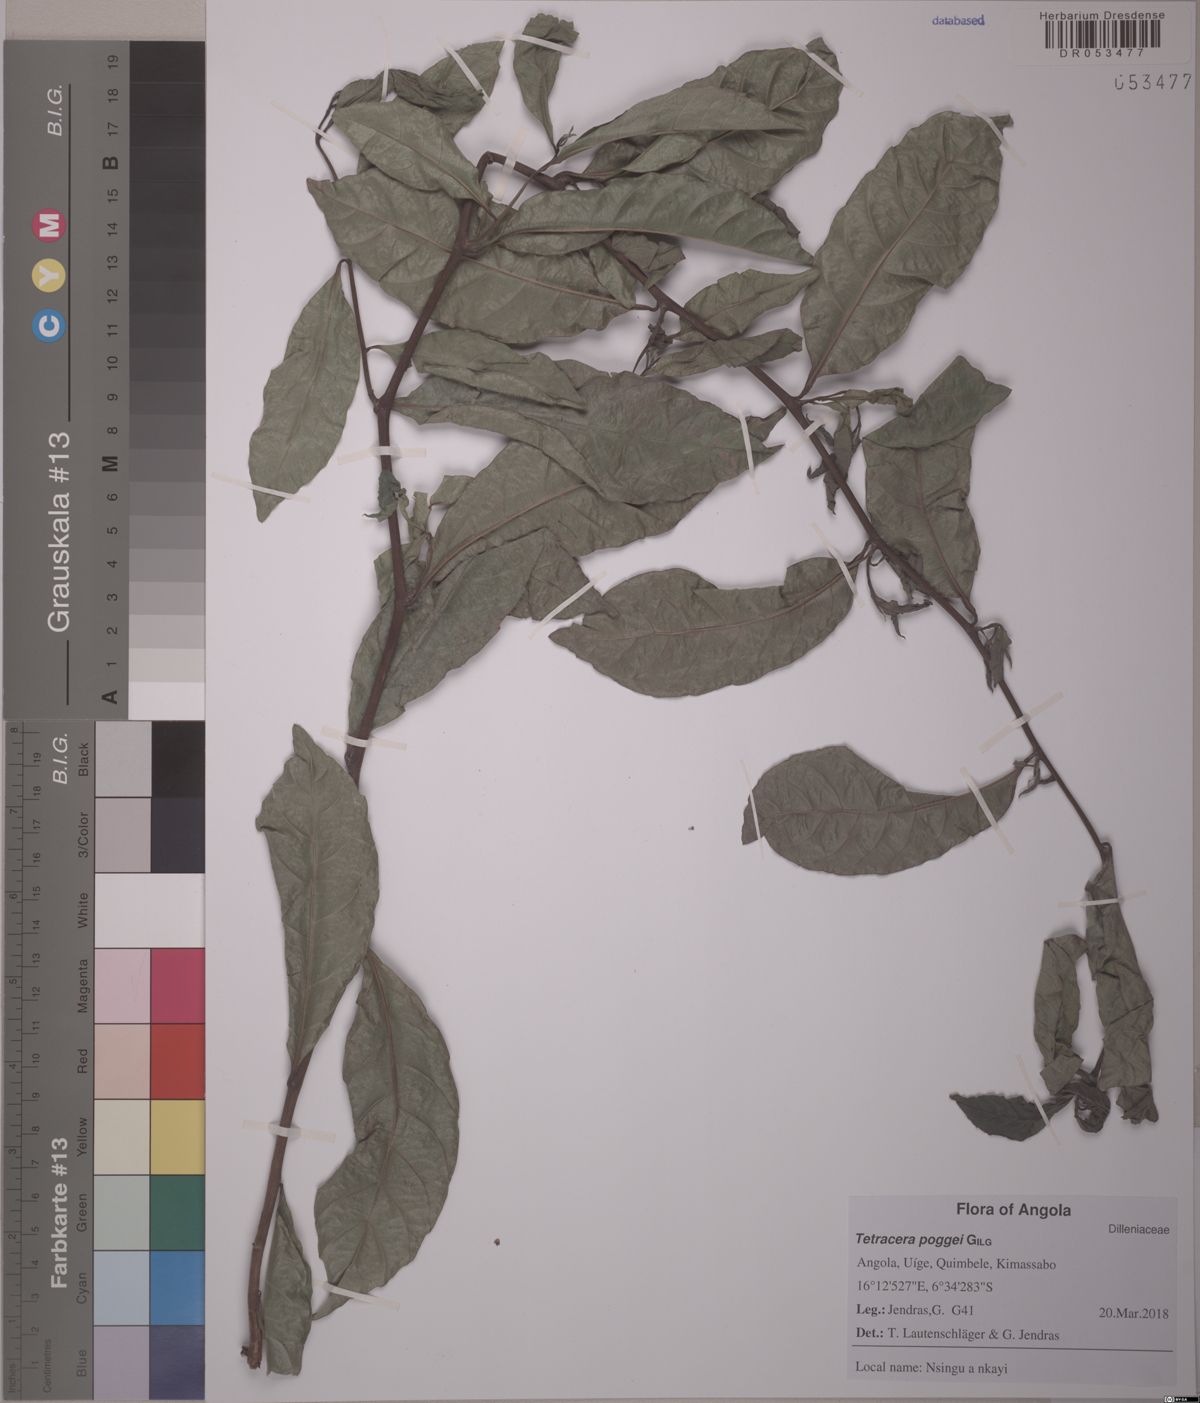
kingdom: Plantae
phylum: Tracheophyta
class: Magnoliopsida
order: Dilleniales
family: Dilleniaceae
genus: Tetracera
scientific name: Tetracera poggei
